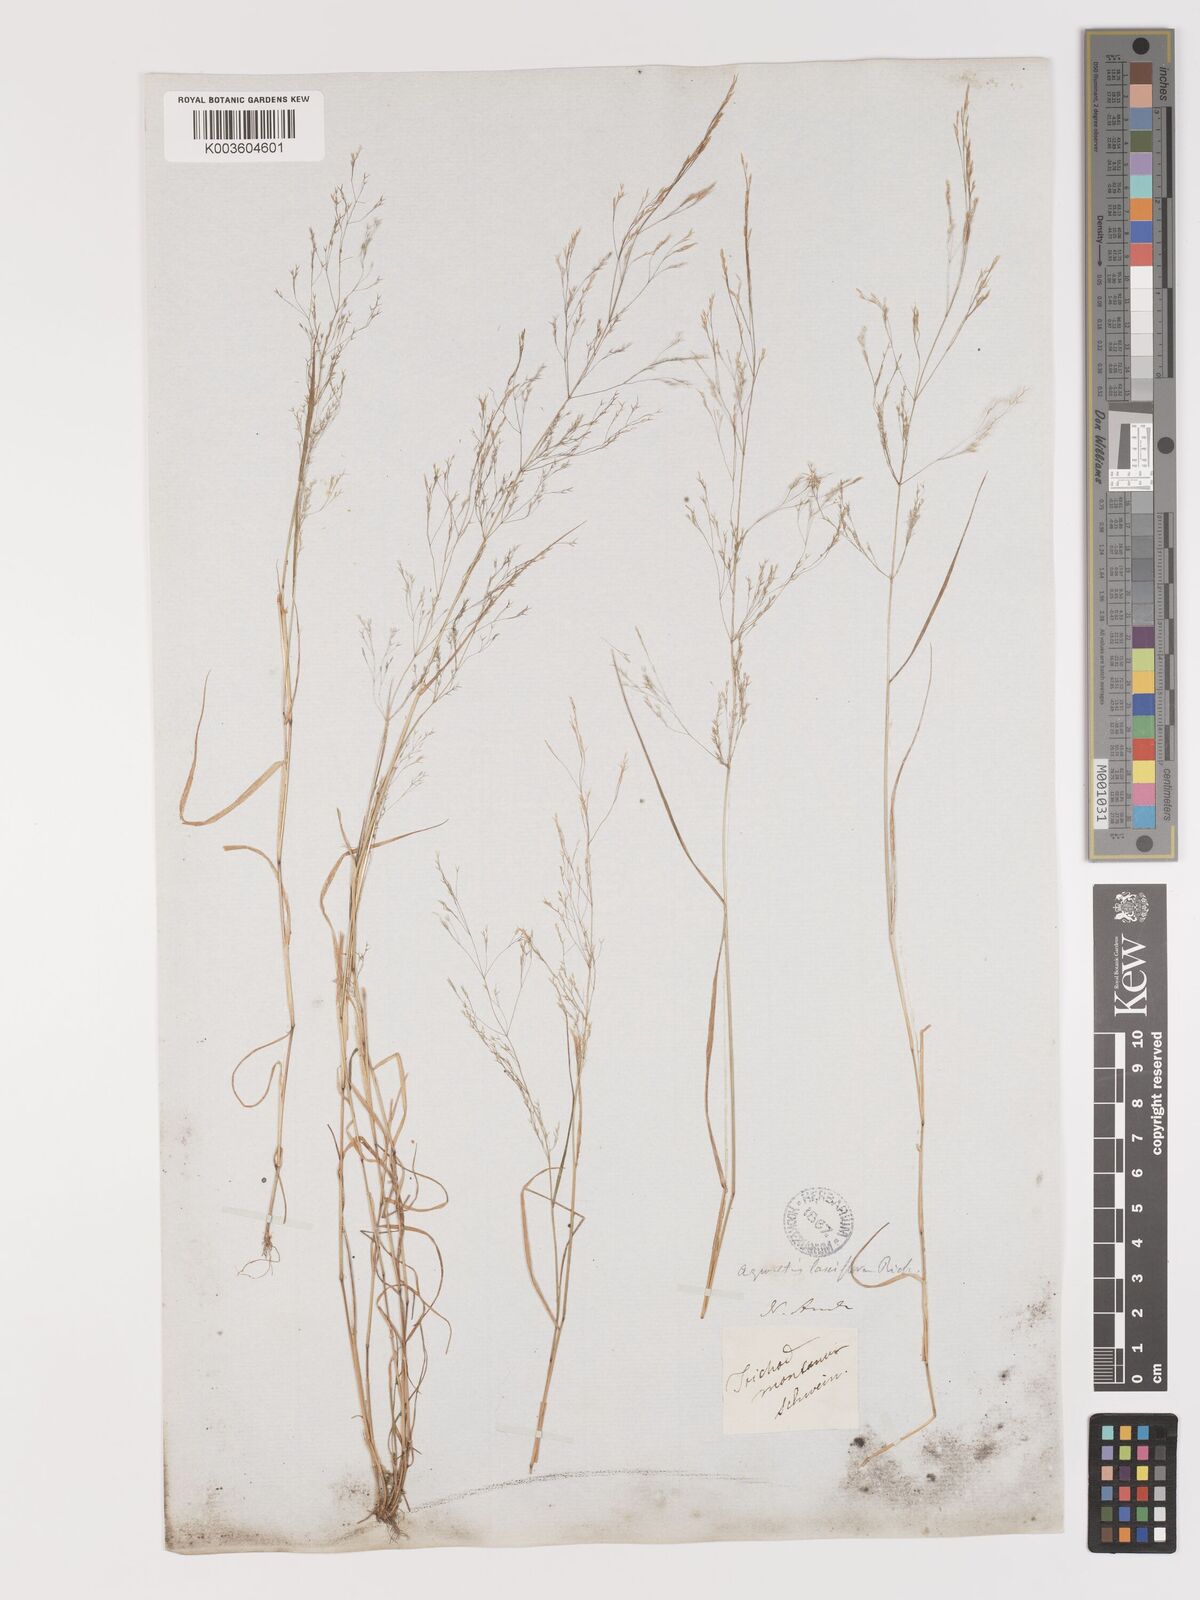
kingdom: Plantae
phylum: Tracheophyta
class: Liliopsida
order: Poales
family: Poaceae
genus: Agrostis
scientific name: Agrostis hyemalis
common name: Small bent
